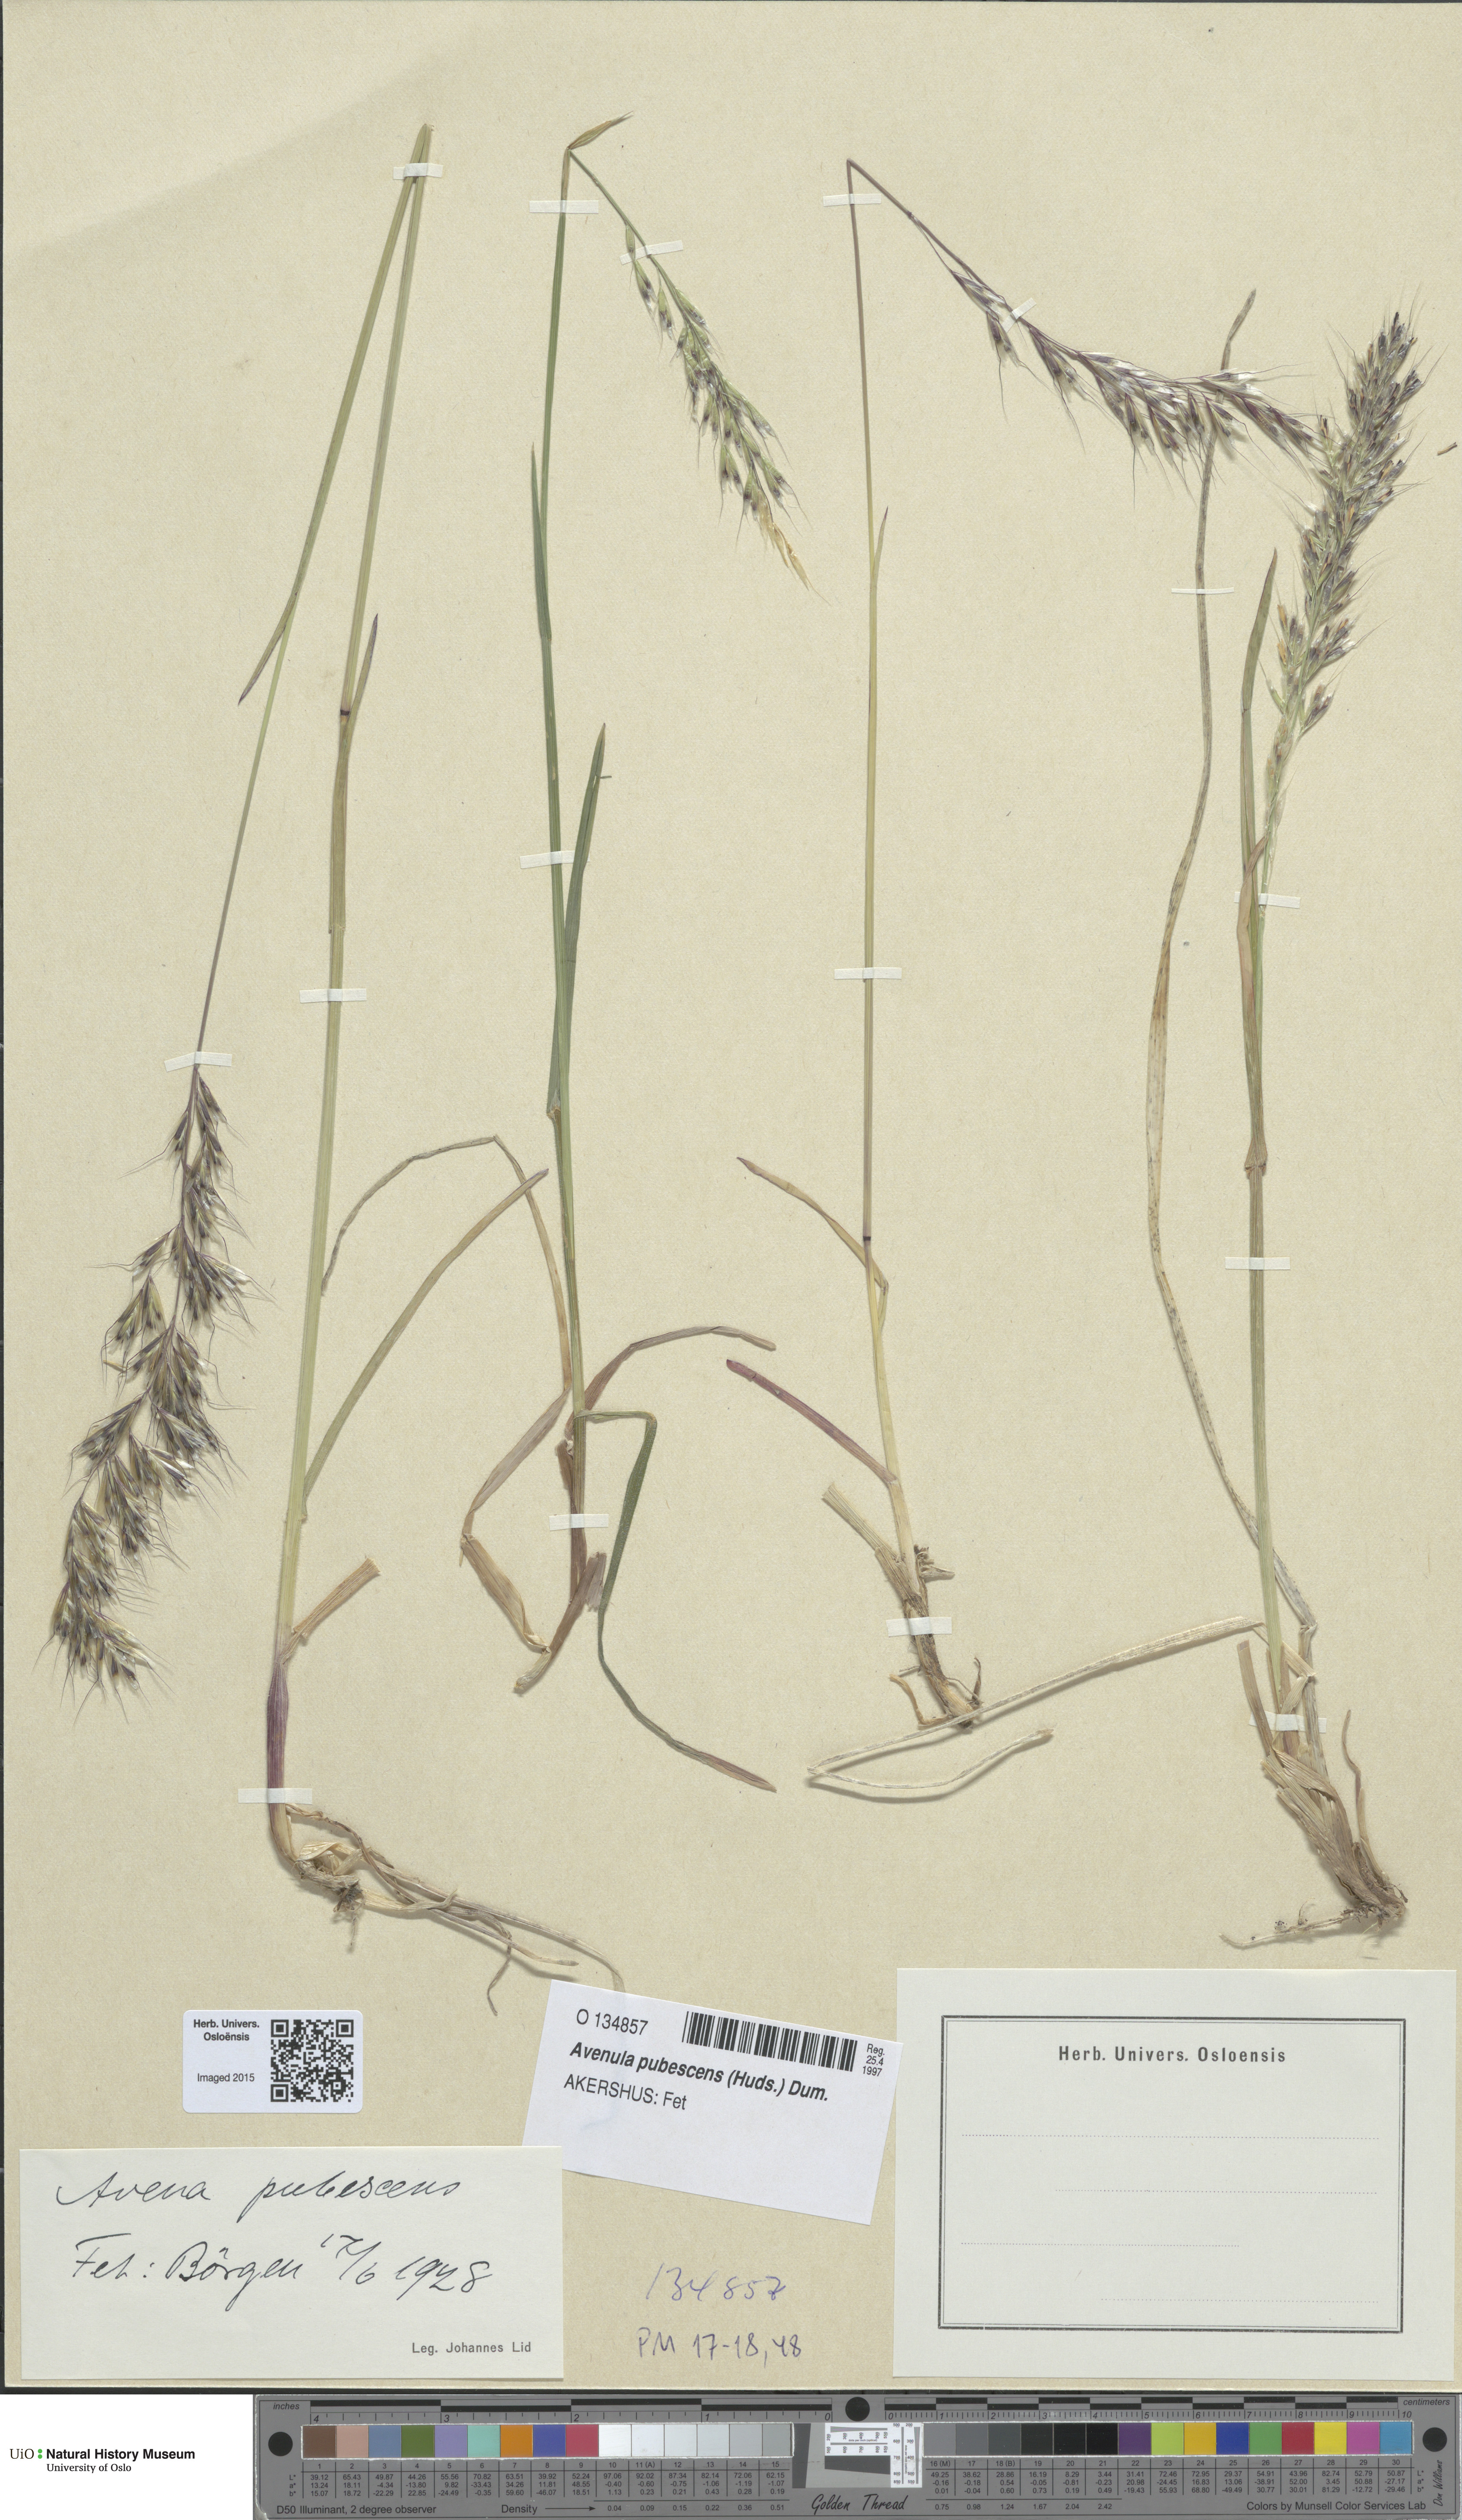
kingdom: Plantae
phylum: Tracheophyta
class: Liliopsida
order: Poales
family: Poaceae
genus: Avenula
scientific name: Avenula pubescens
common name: Downy alpine oatgrass
